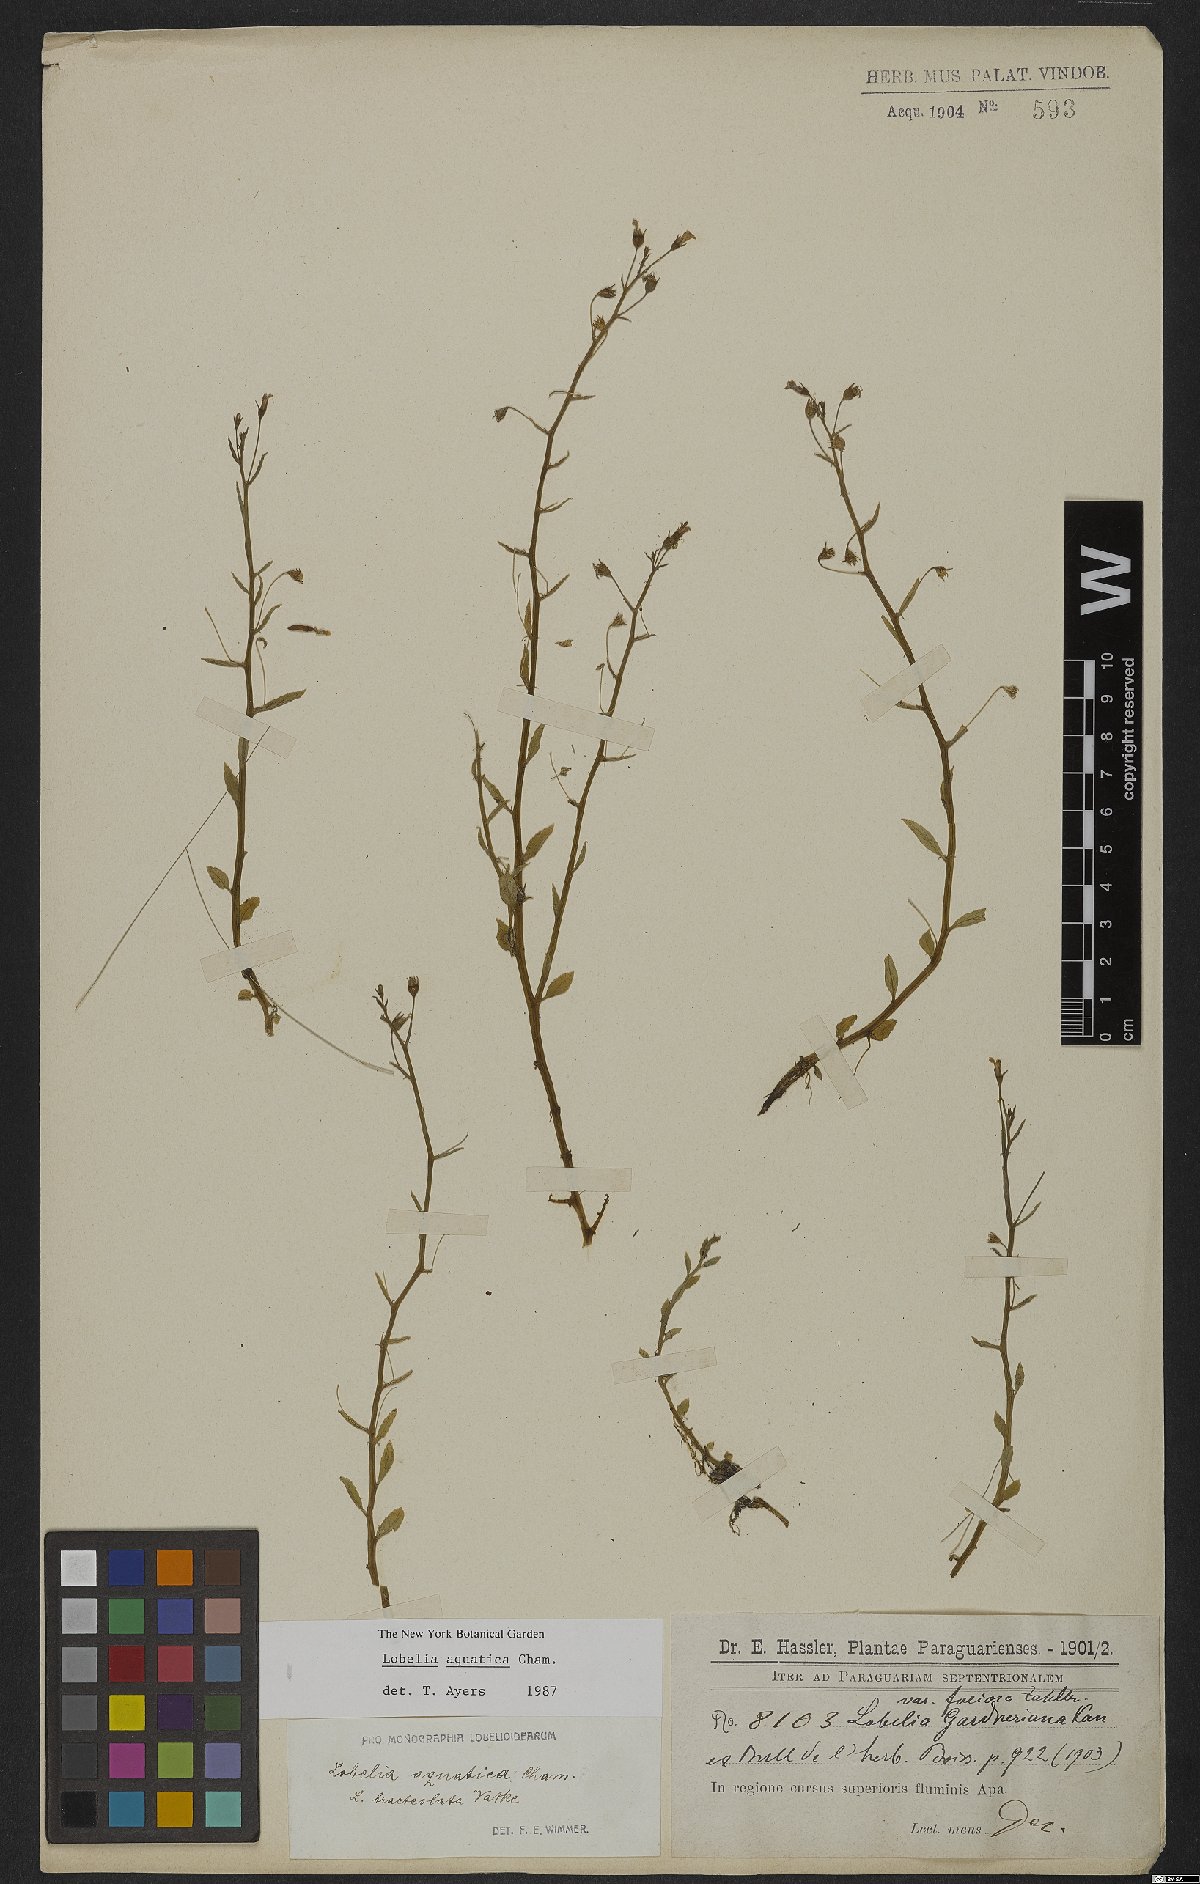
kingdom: Plantae
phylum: Tracheophyta
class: Magnoliopsida
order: Asterales
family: Campanulaceae
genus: Lobelia
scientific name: Lobelia aquatica
